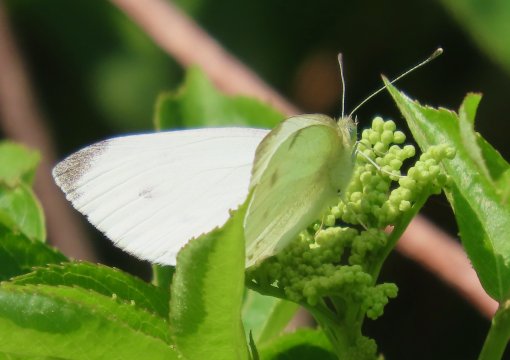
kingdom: Animalia
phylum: Arthropoda
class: Insecta
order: Lepidoptera
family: Pieridae
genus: Pieris
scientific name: Pieris rapae
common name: Cabbage White
